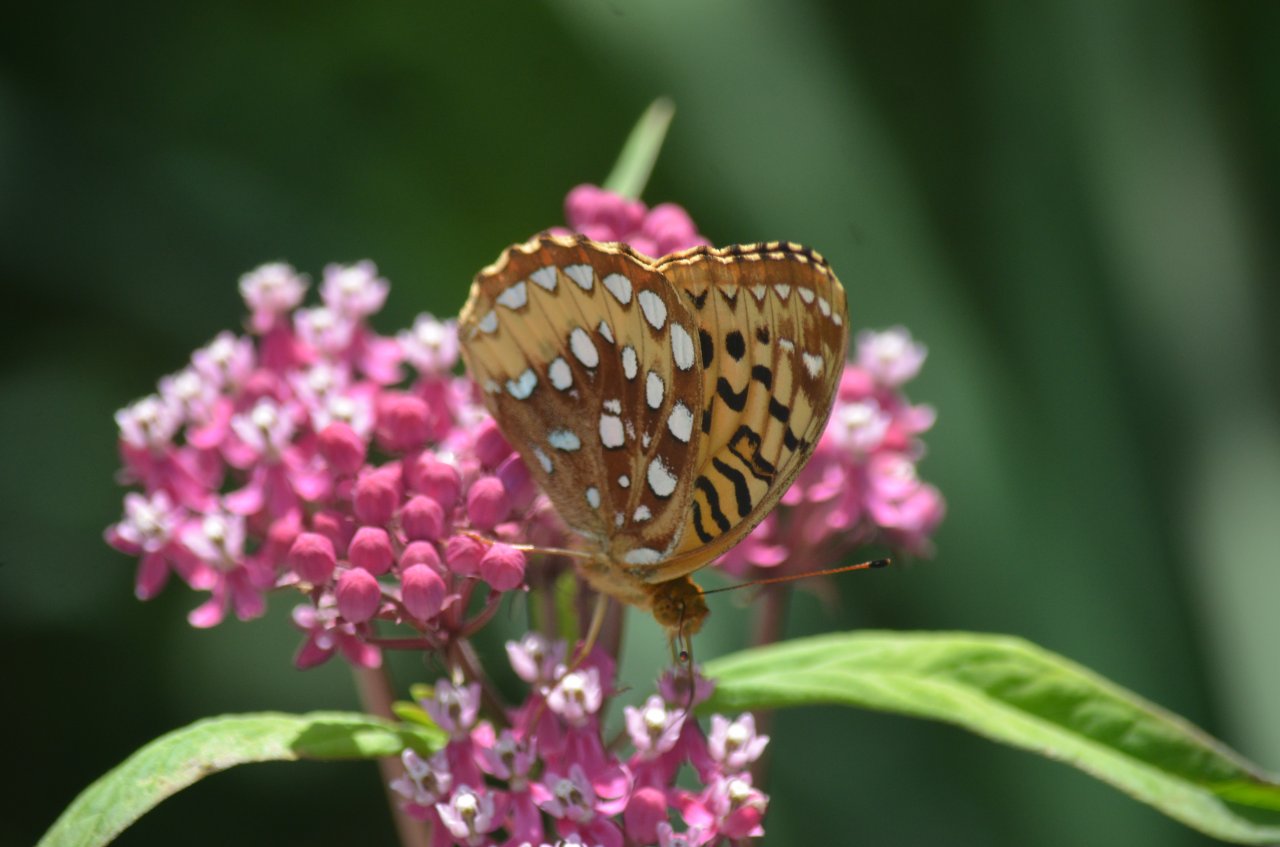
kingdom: Animalia
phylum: Arthropoda
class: Insecta
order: Lepidoptera
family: Nymphalidae
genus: Speyeria
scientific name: Speyeria cybele
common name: Great Spangled Fritillary
